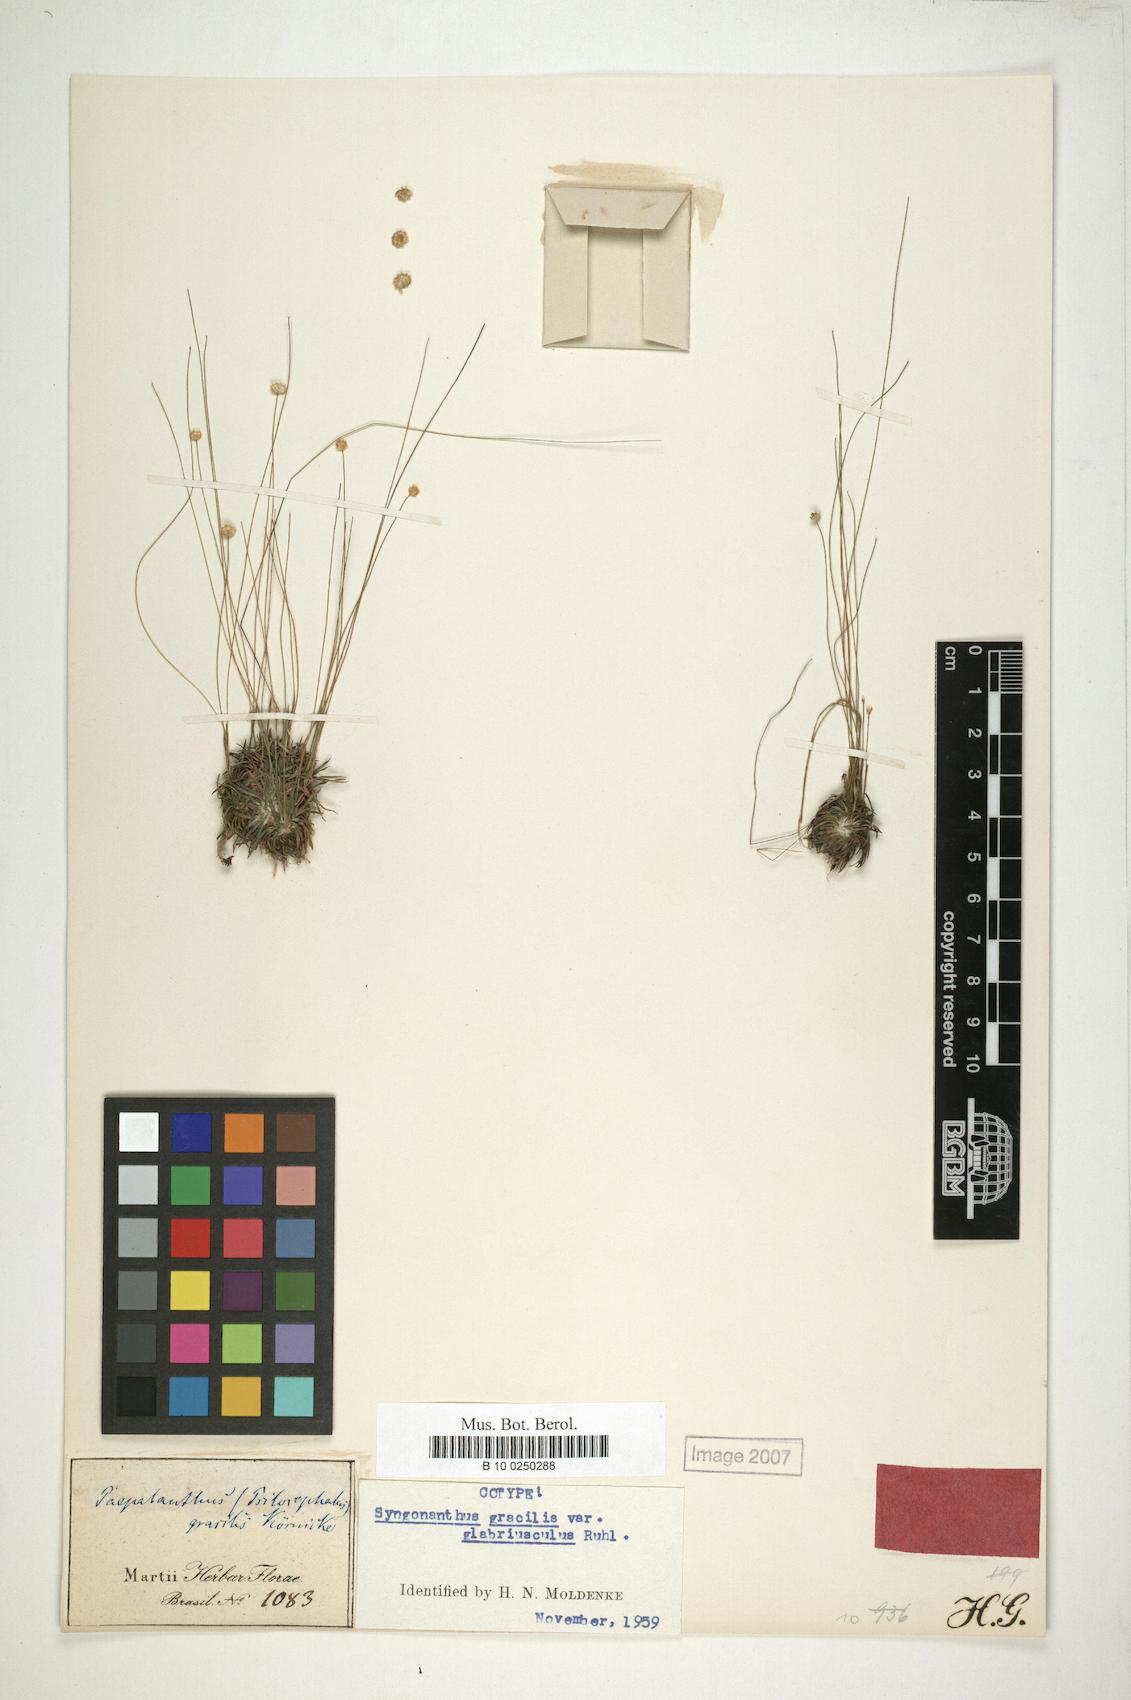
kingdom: Plantae
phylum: Tracheophyta
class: Liliopsida
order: Poales
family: Eriocaulaceae
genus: Syngonanthus
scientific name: Syngonanthus gracilis
